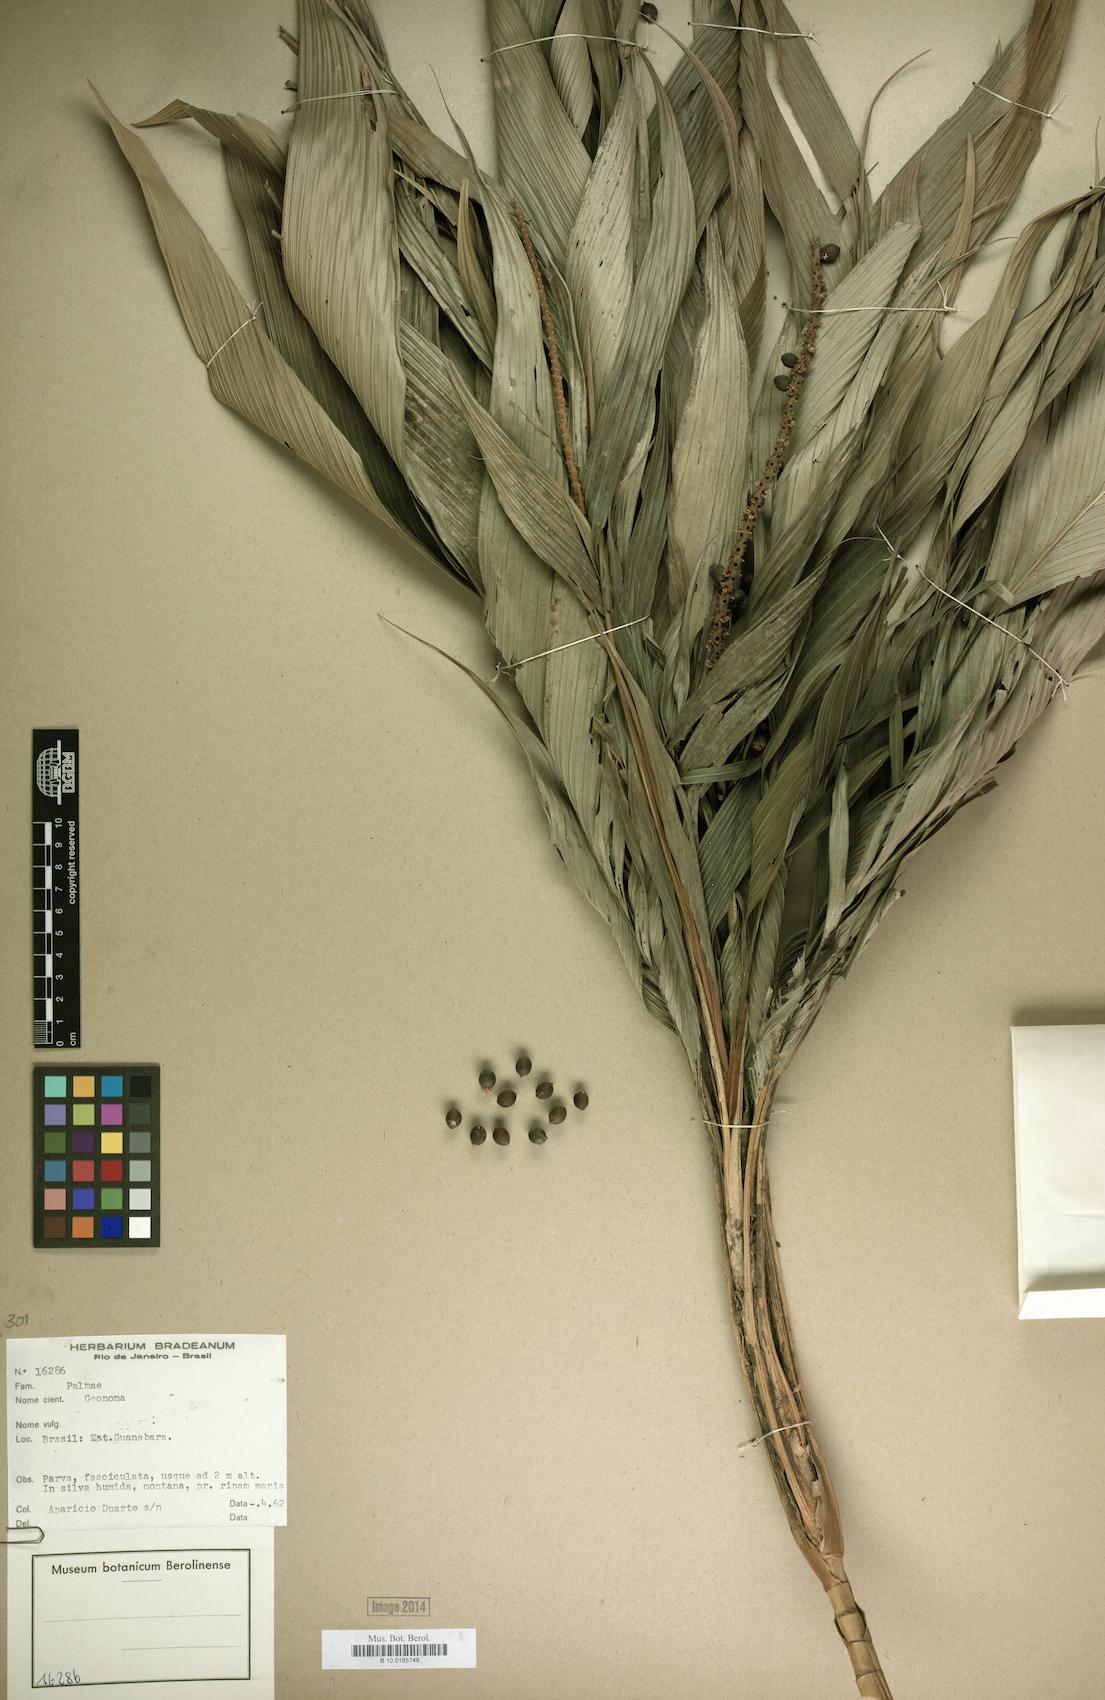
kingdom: Plantae
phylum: Tracheophyta
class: Liliopsida
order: Arecales
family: Arecaceae
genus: Geonoma
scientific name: Geonoma
